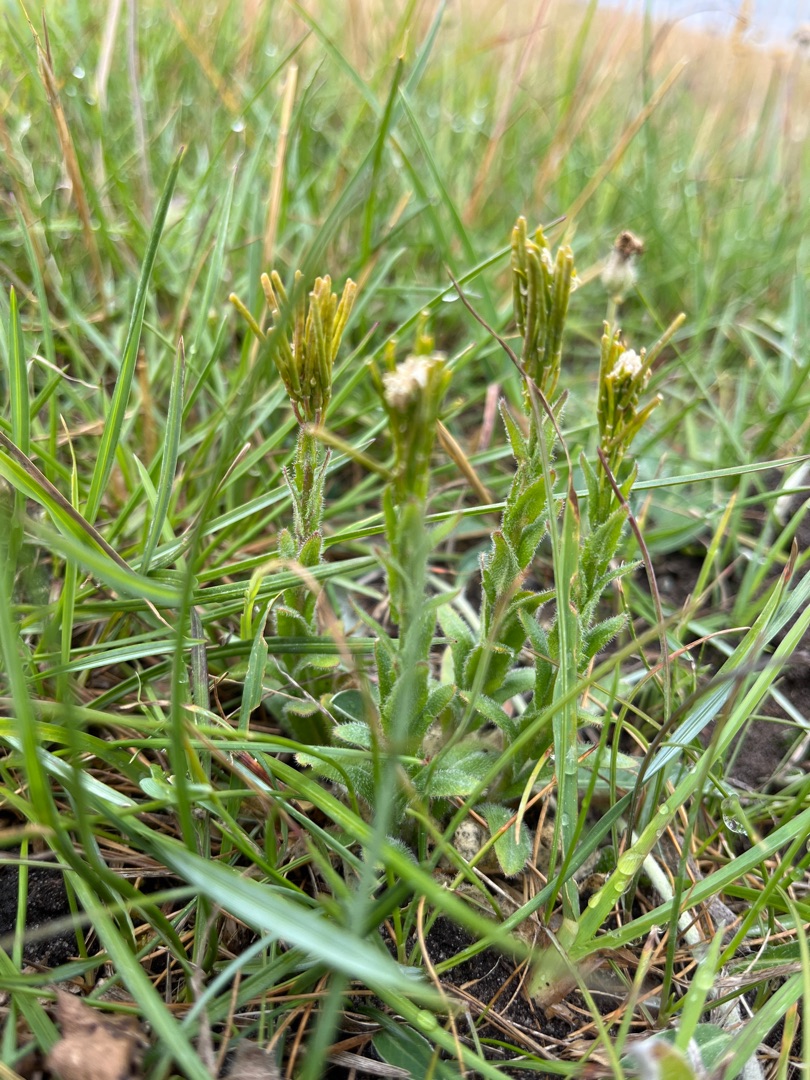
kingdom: Plantae
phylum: Tracheophyta
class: Magnoliopsida
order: Brassicales
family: Brassicaceae
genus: Arabis
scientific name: Arabis hirsuta
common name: Stivhåret kalkkarse
